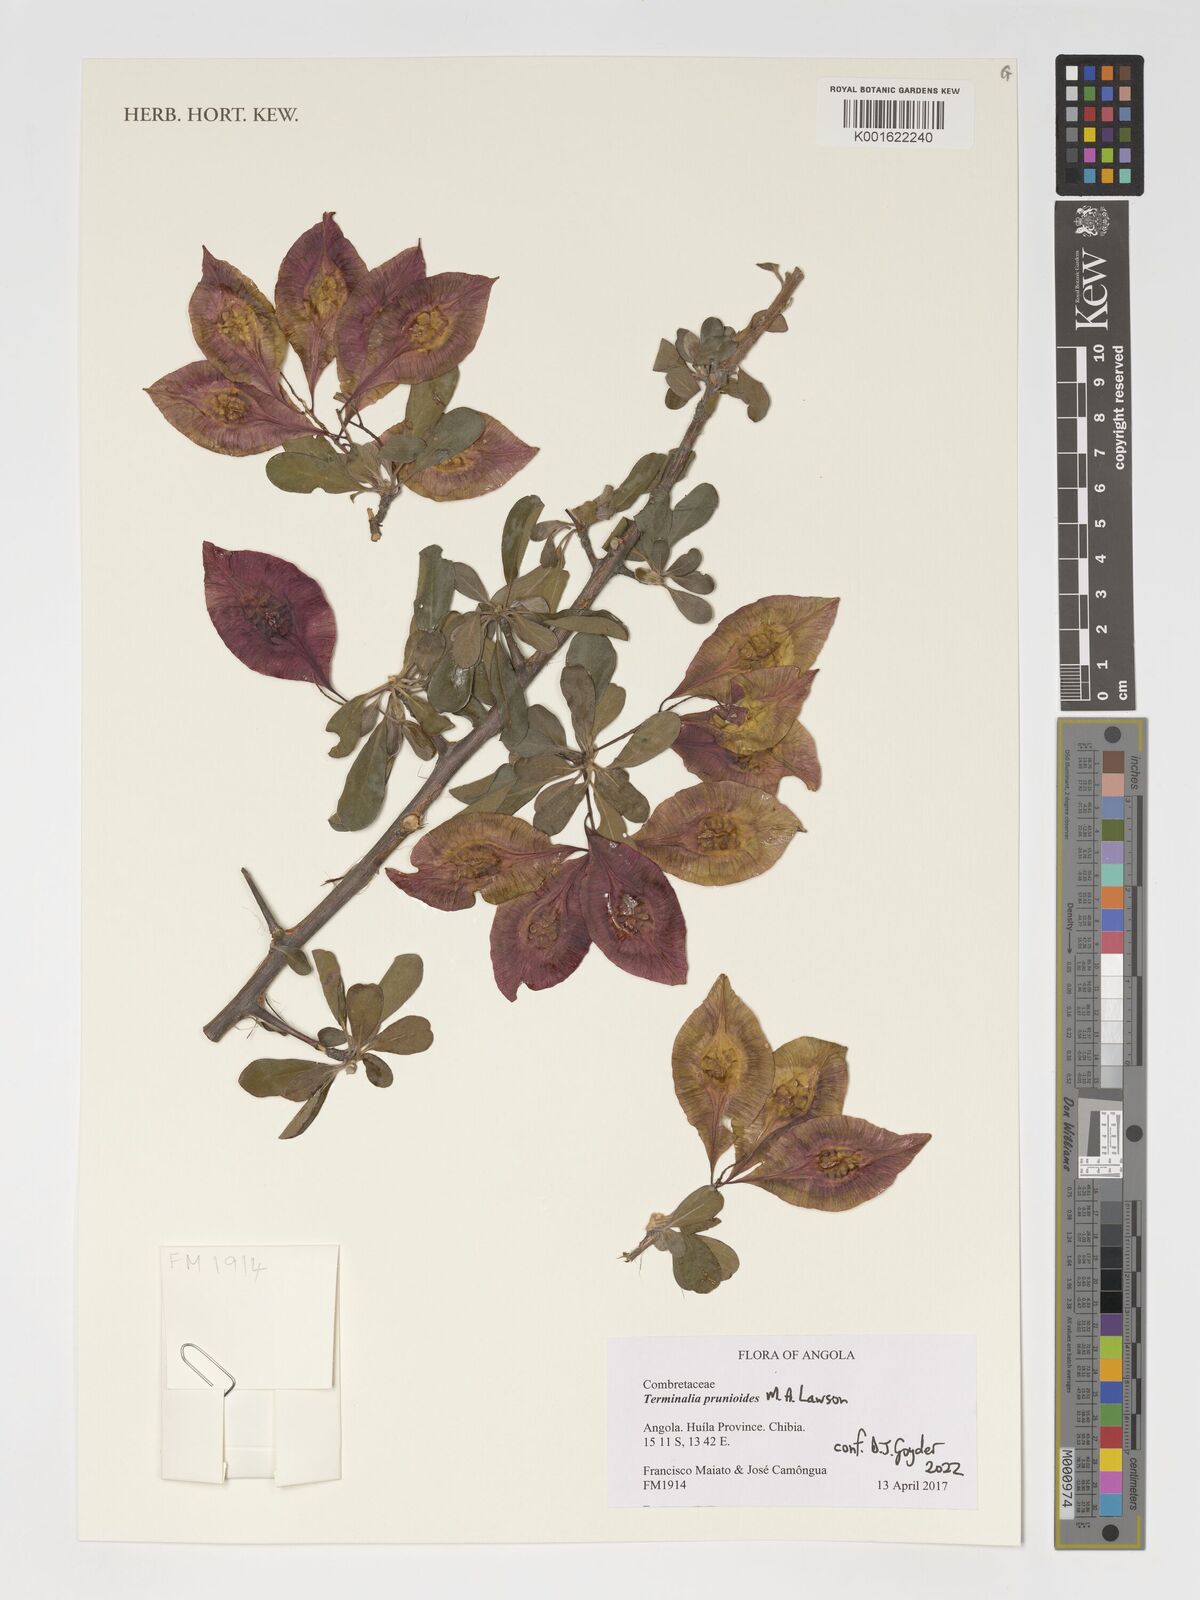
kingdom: Plantae
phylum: Tracheophyta
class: Magnoliopsida
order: Myrtales
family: Combretaceae
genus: Terminalia
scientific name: Terminalia prunioides
